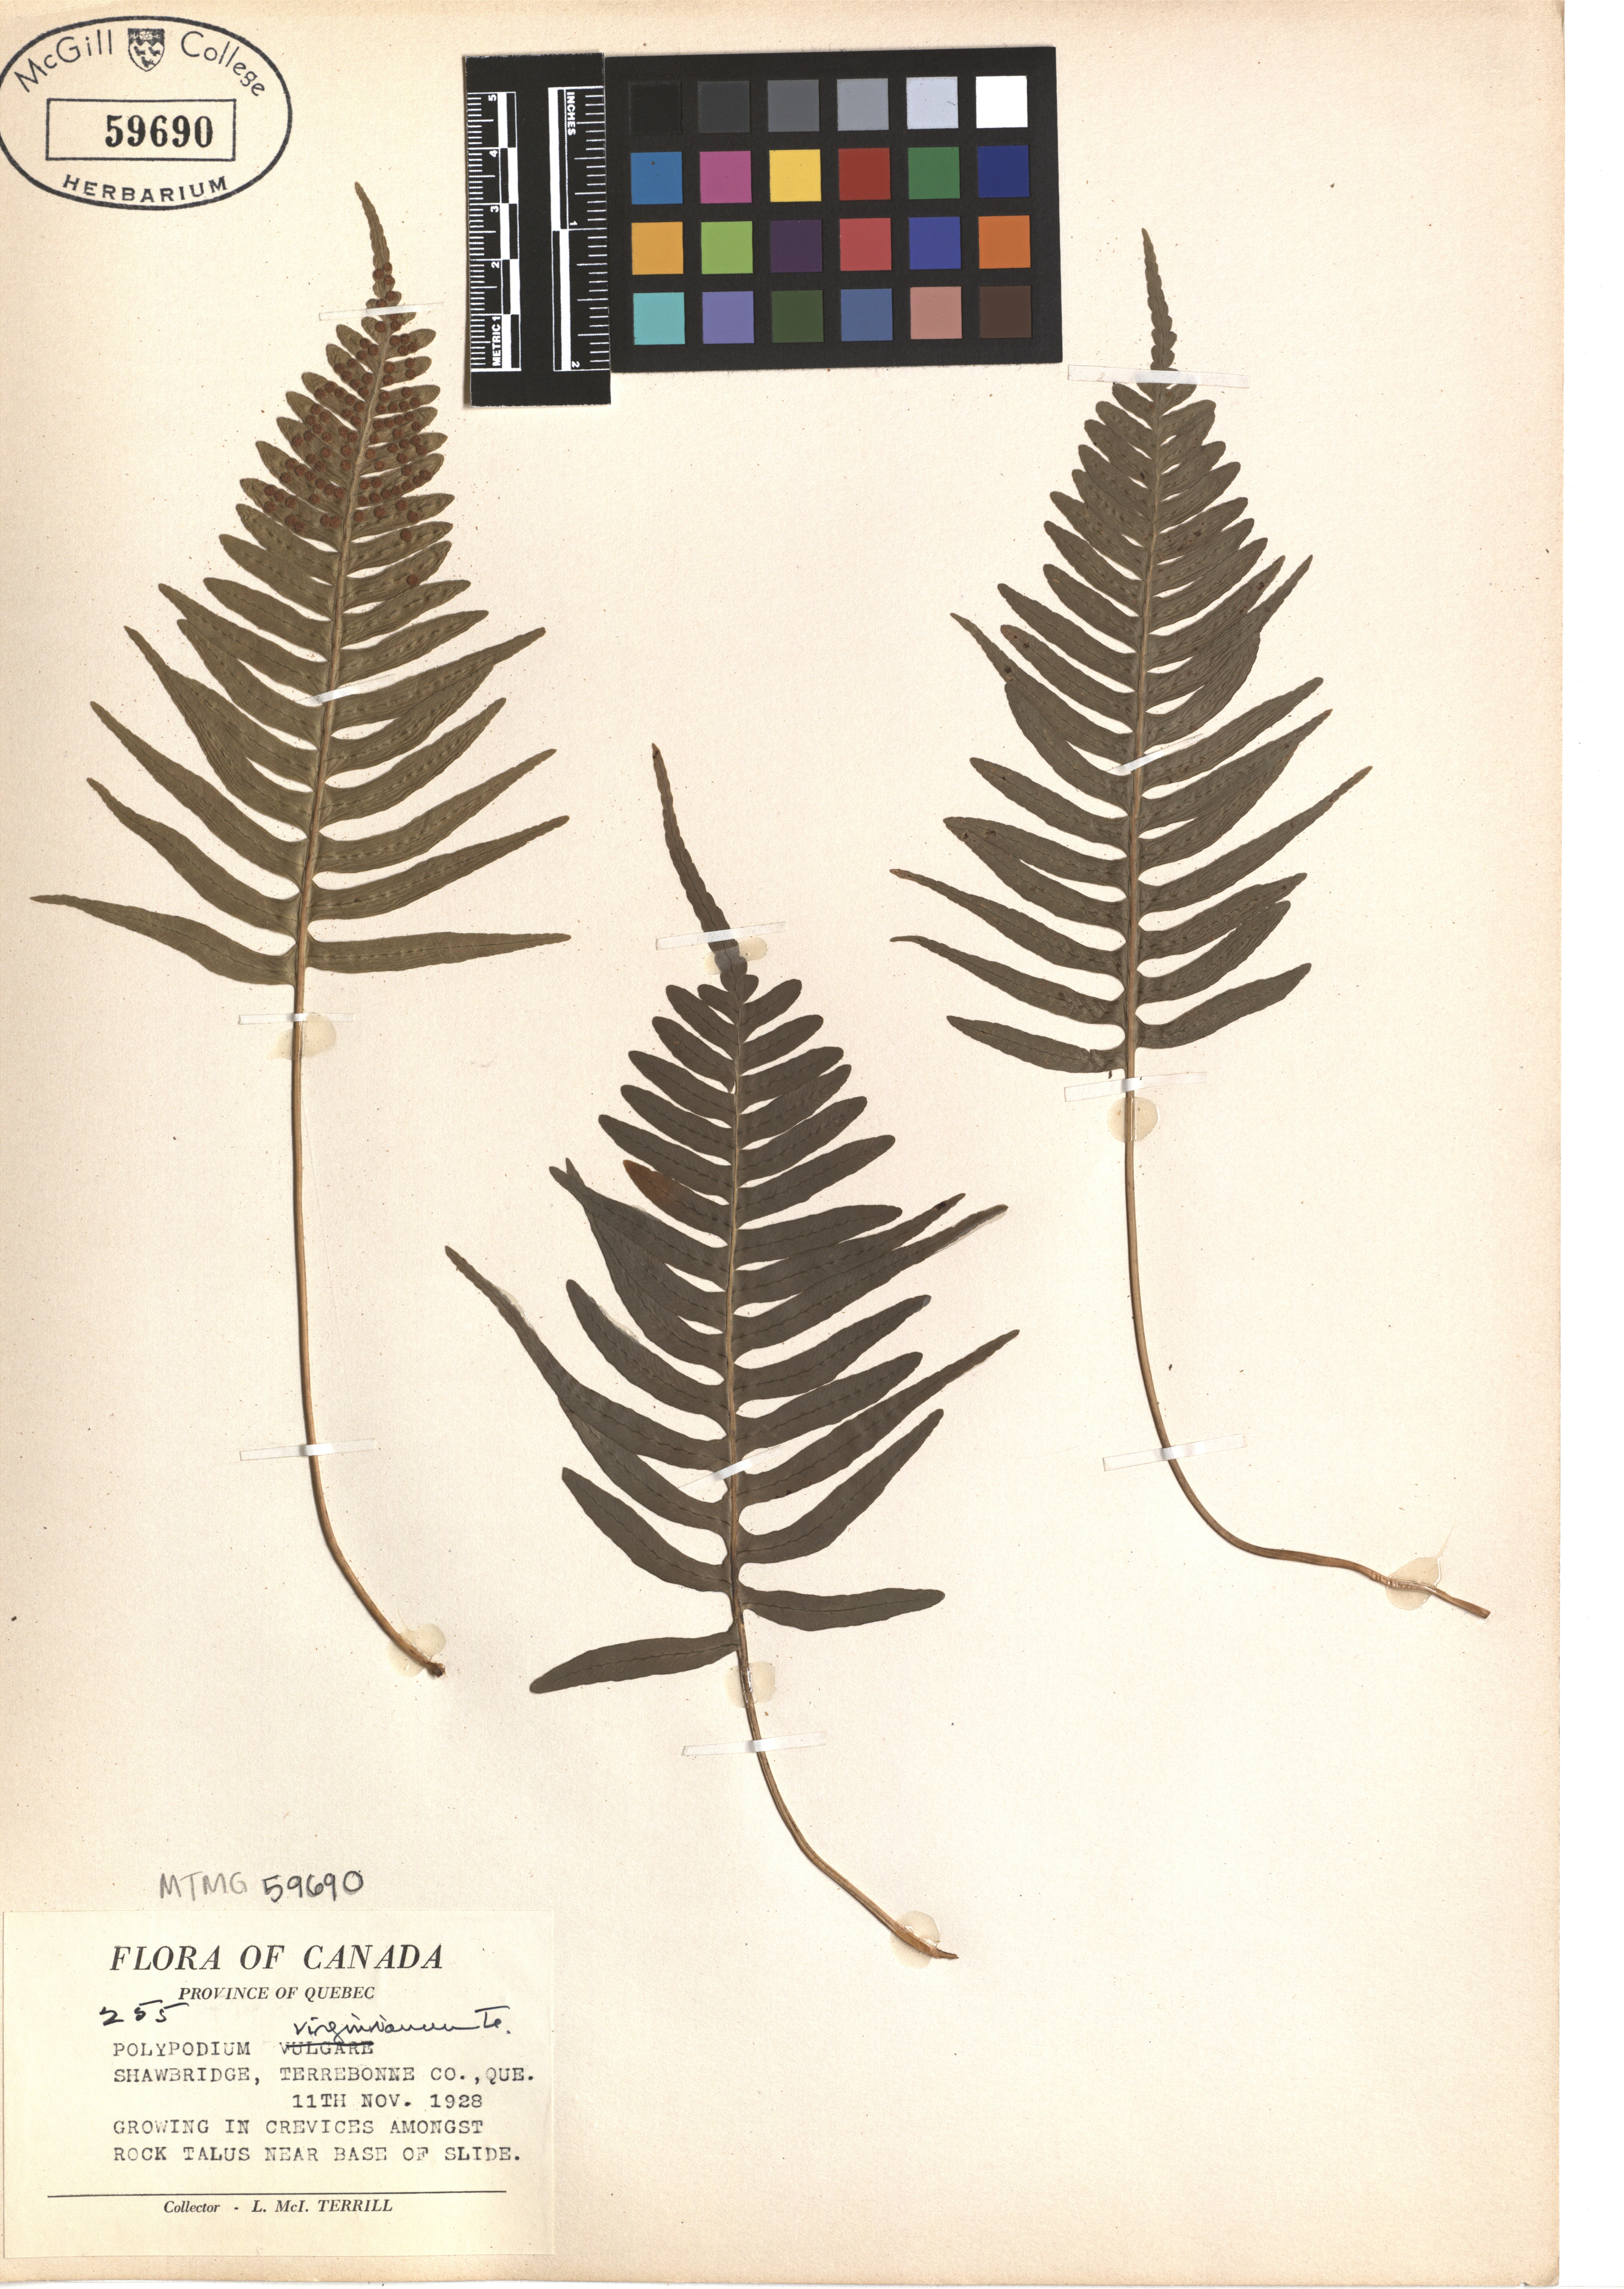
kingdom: Plantae
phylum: Tracheophyta
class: Polypodiopsida
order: Polypodiales
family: Polypodiaceae
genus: Polypodium
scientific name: Polypodium virginianum
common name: American wall fern
